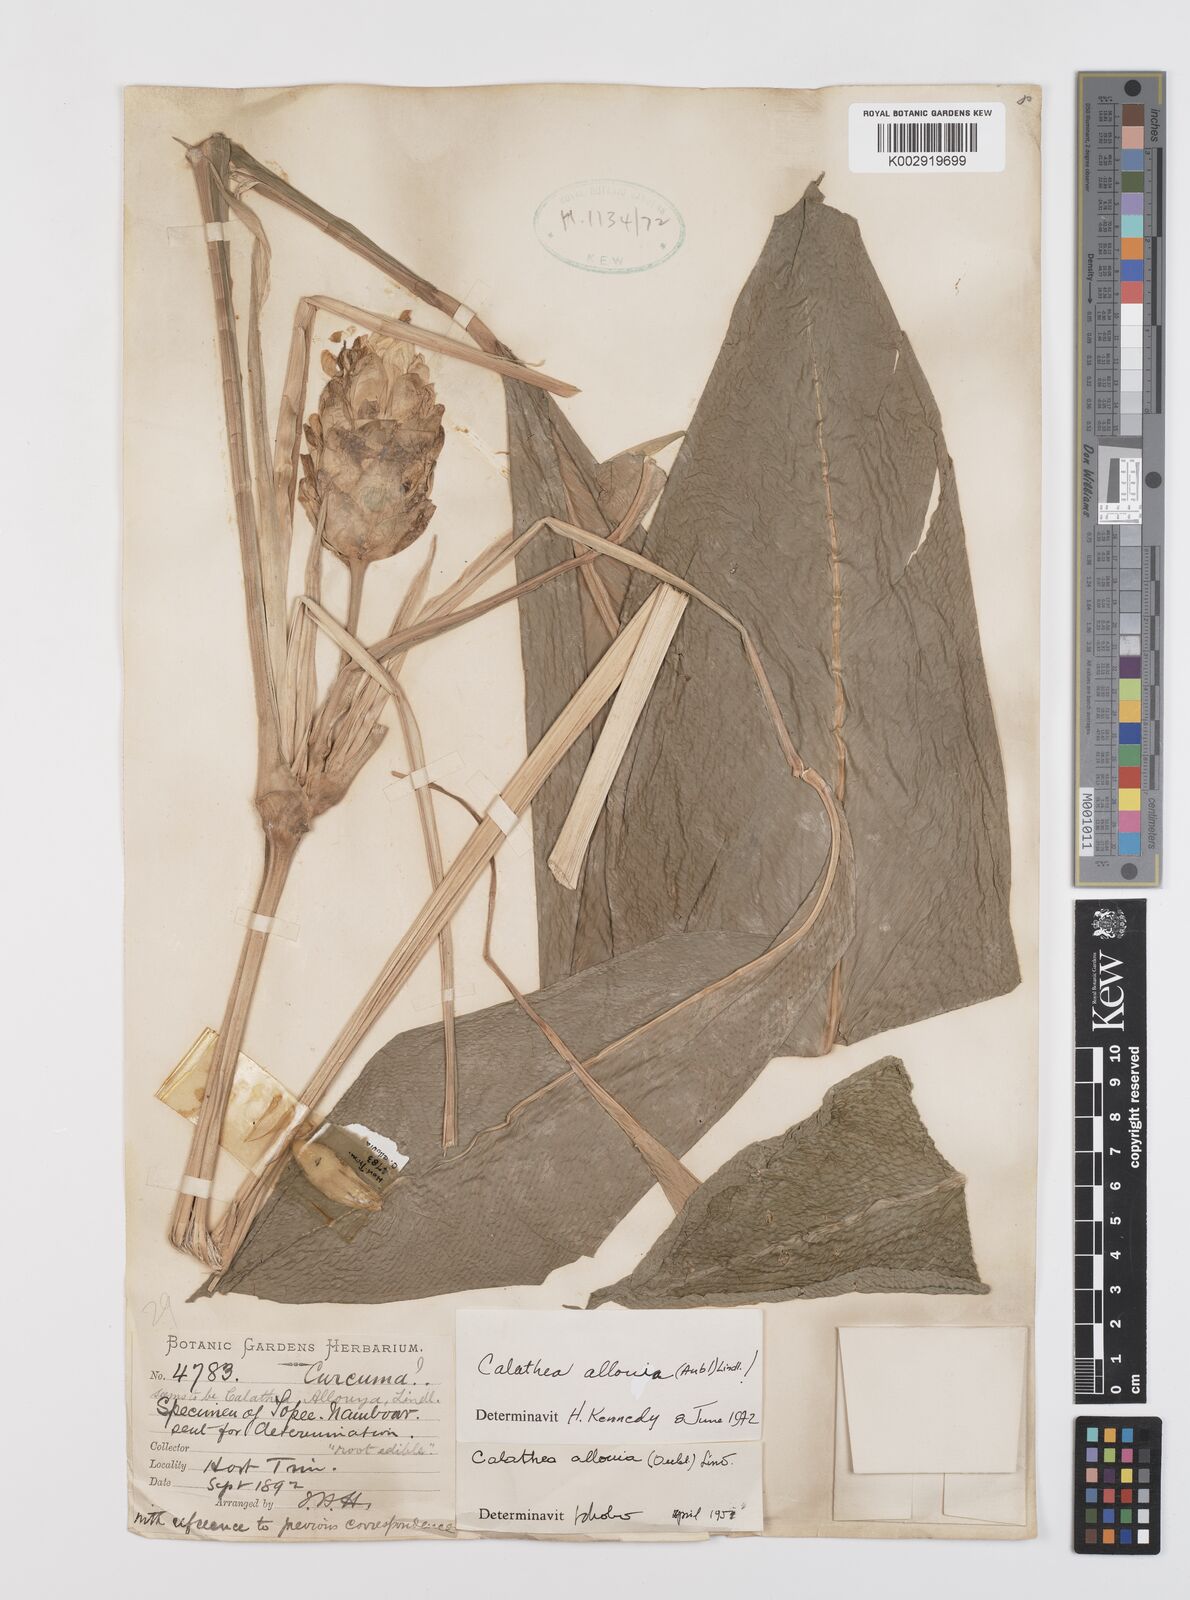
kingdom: Plantae
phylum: Tracheophyta
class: Liliopsida
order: Zingiberales
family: Marantaceae
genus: Goeppertia
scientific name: Goeppertia allouia
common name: Sweet corn-tuber
